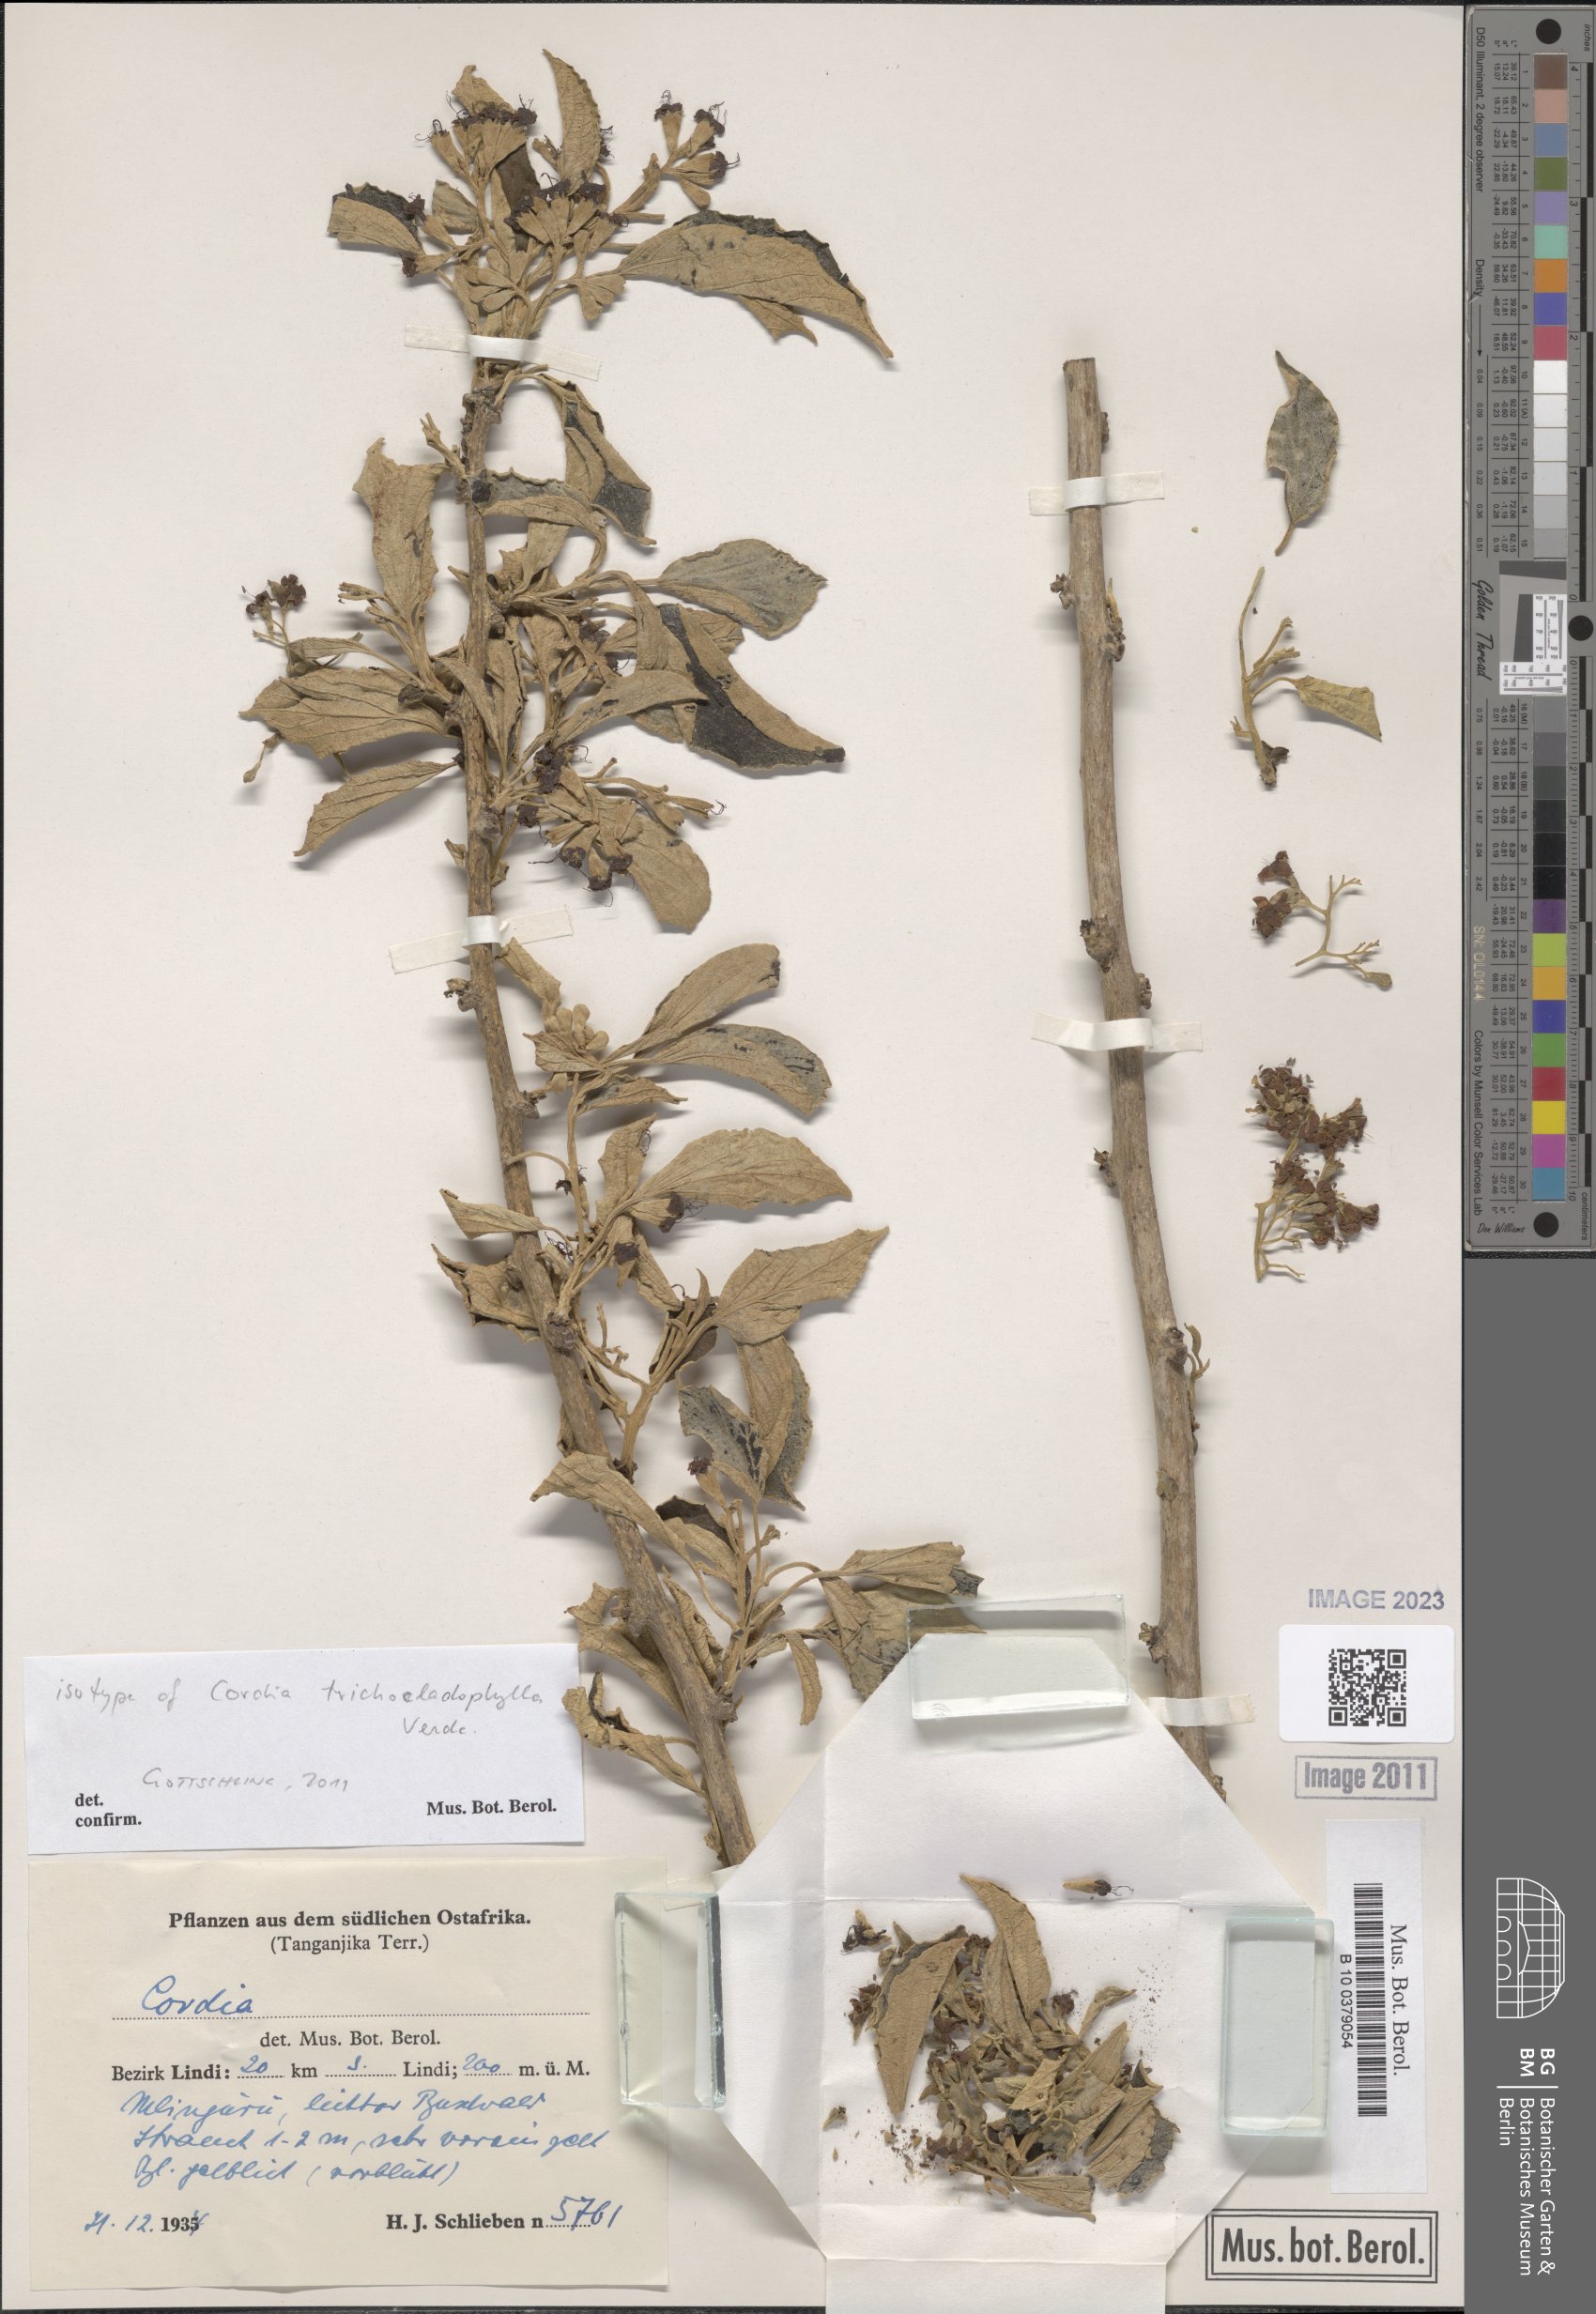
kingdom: Plantae
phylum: Tracheophyta
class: Magnoliopsida
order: Boraginales
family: Cordiaceae
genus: Cordia
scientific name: Cordia trichocladophylla
